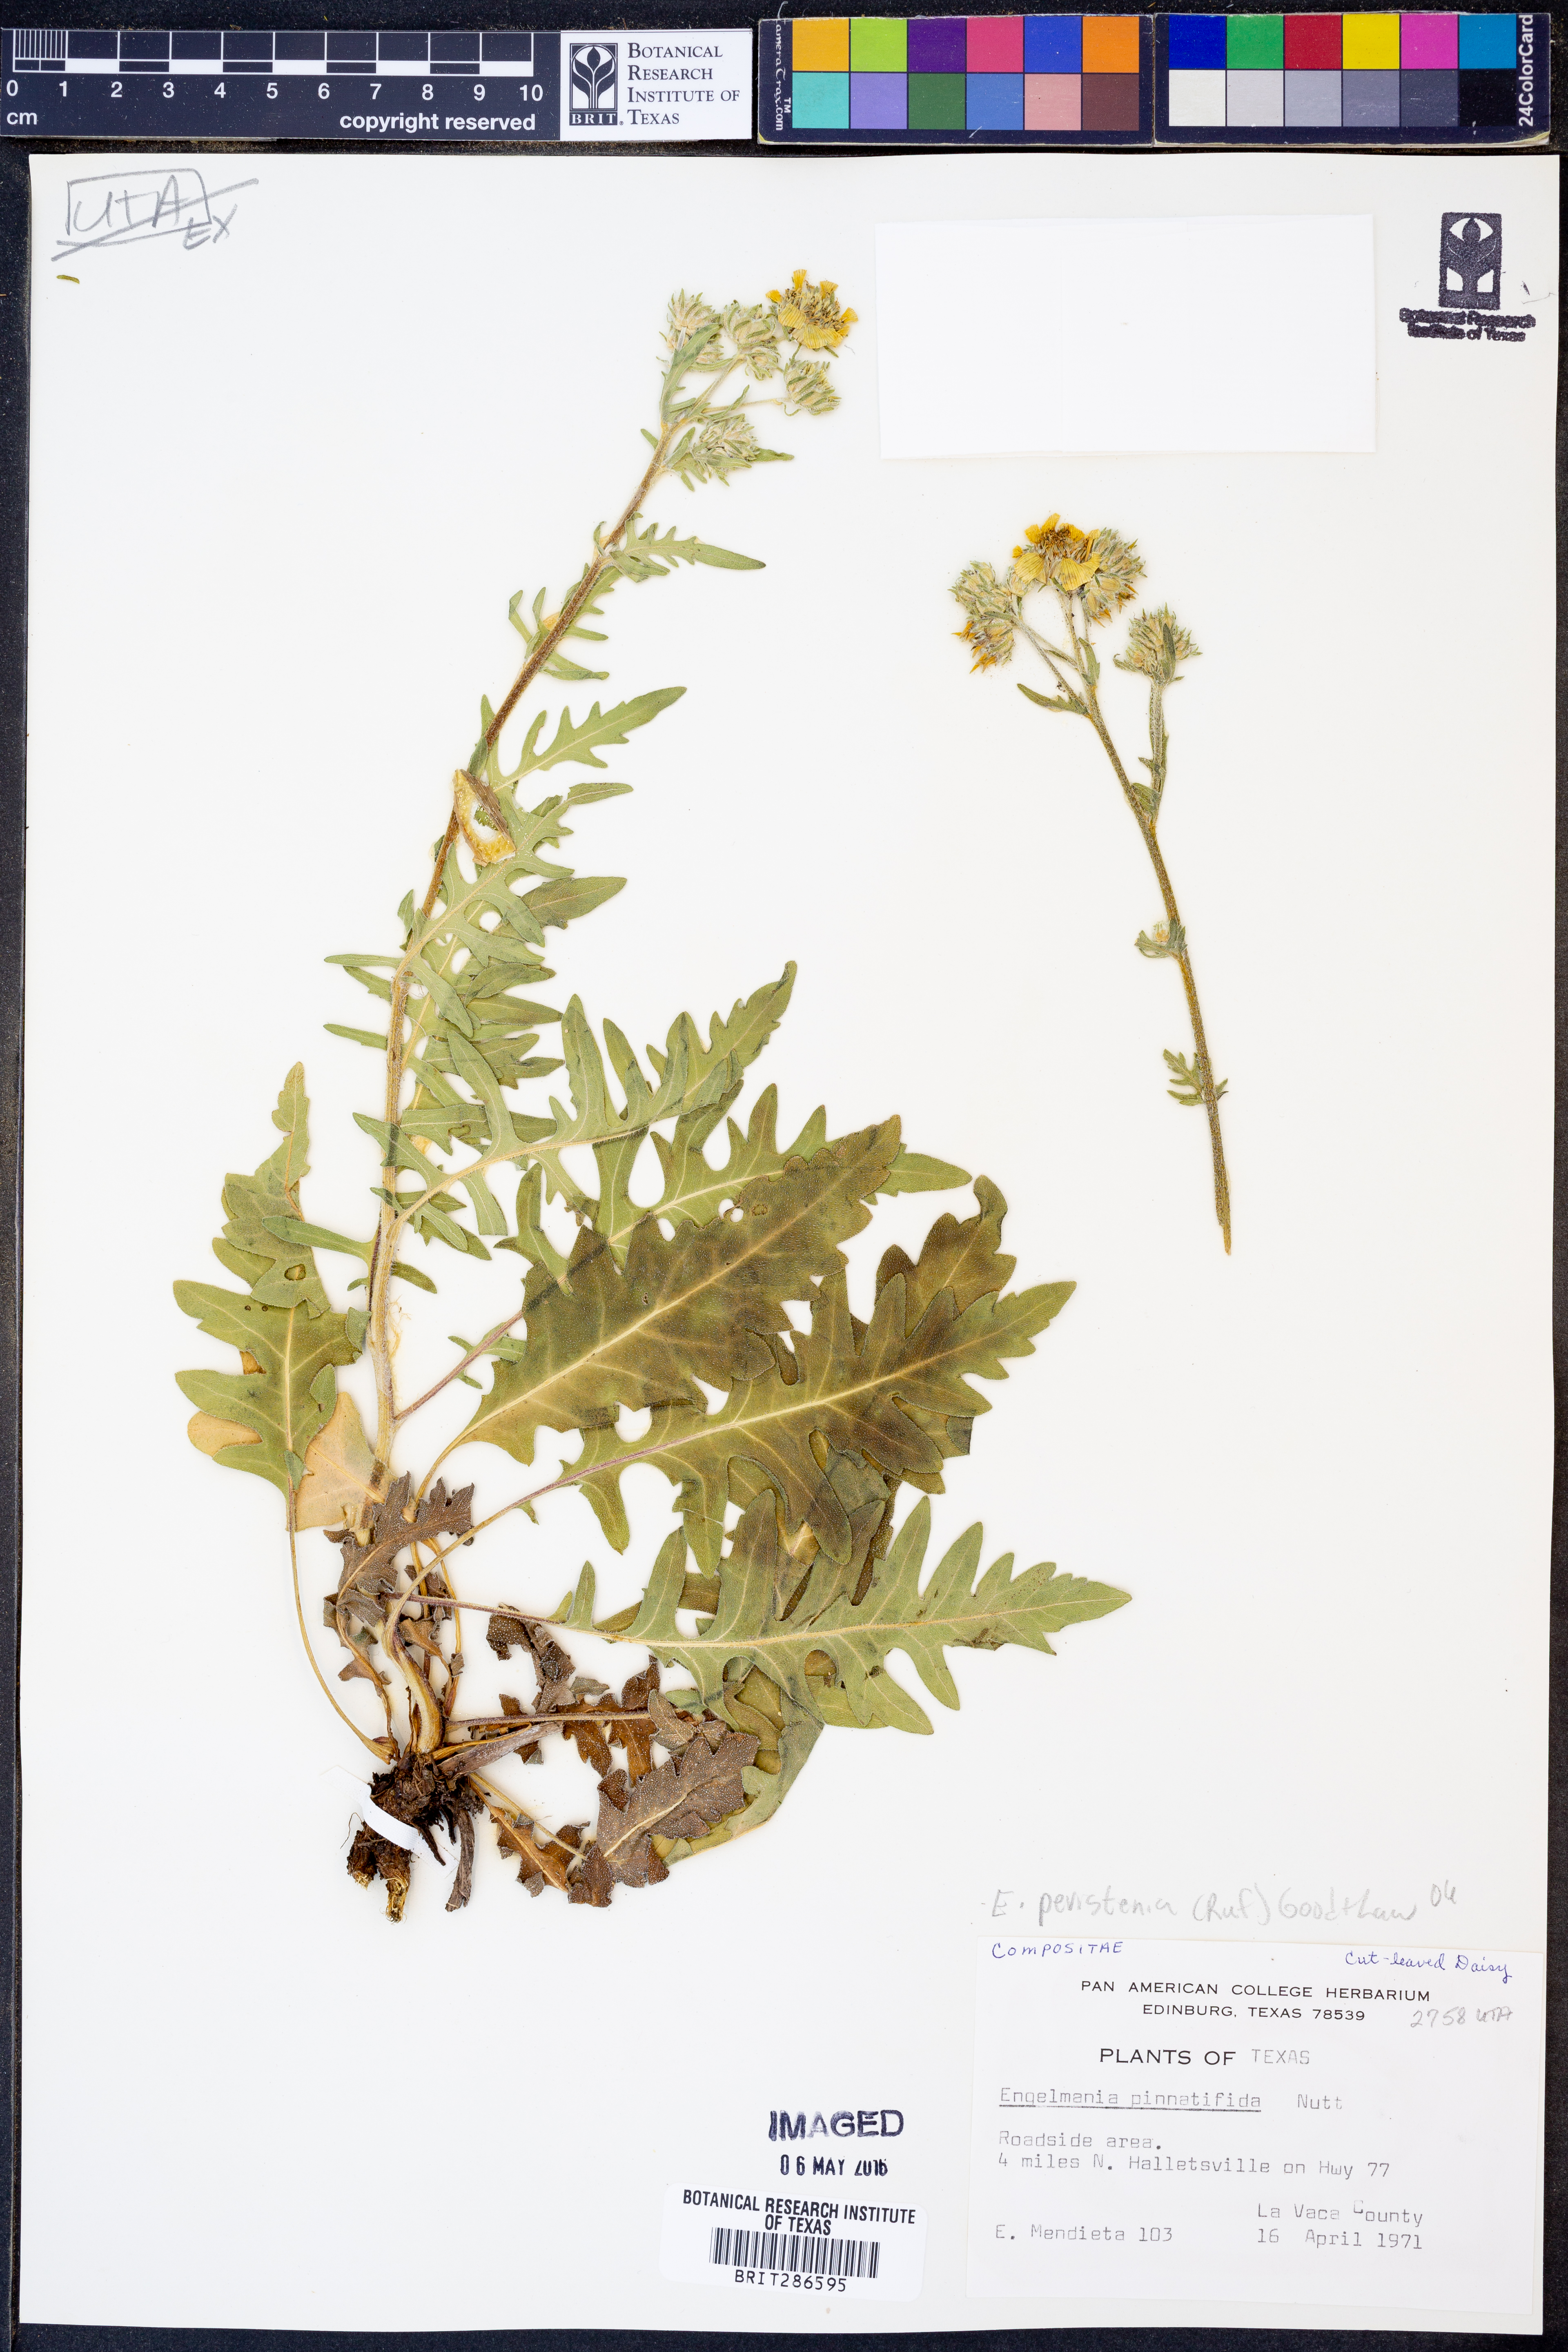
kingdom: Plantae
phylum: Tracheophyta
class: Magnoliopsida
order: Asterales
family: Asteraceae
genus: Engelmannia
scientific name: Engelmannia peristenia
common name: Engelmann's daisy
